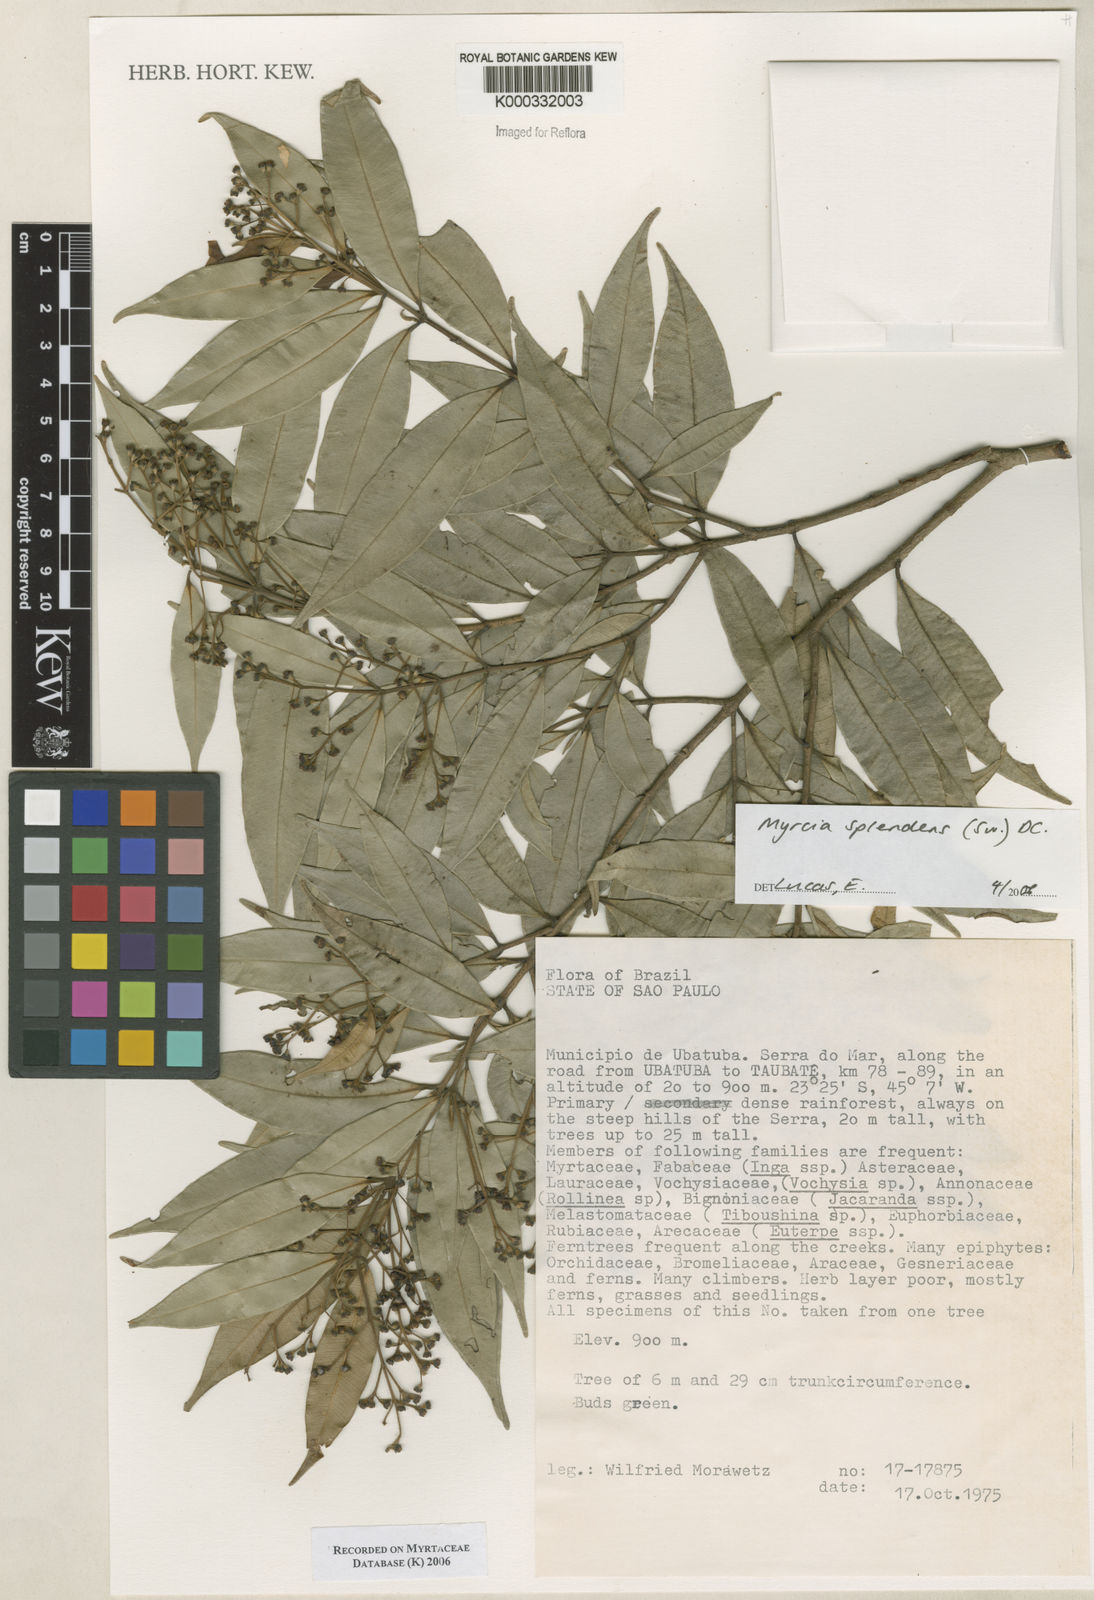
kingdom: Plantae
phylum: Tracheophyta
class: Magnoliopsida
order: Myrtales
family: Myrtaceae
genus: Myrcia
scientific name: Myrcia splendens
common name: Surinam cherry
